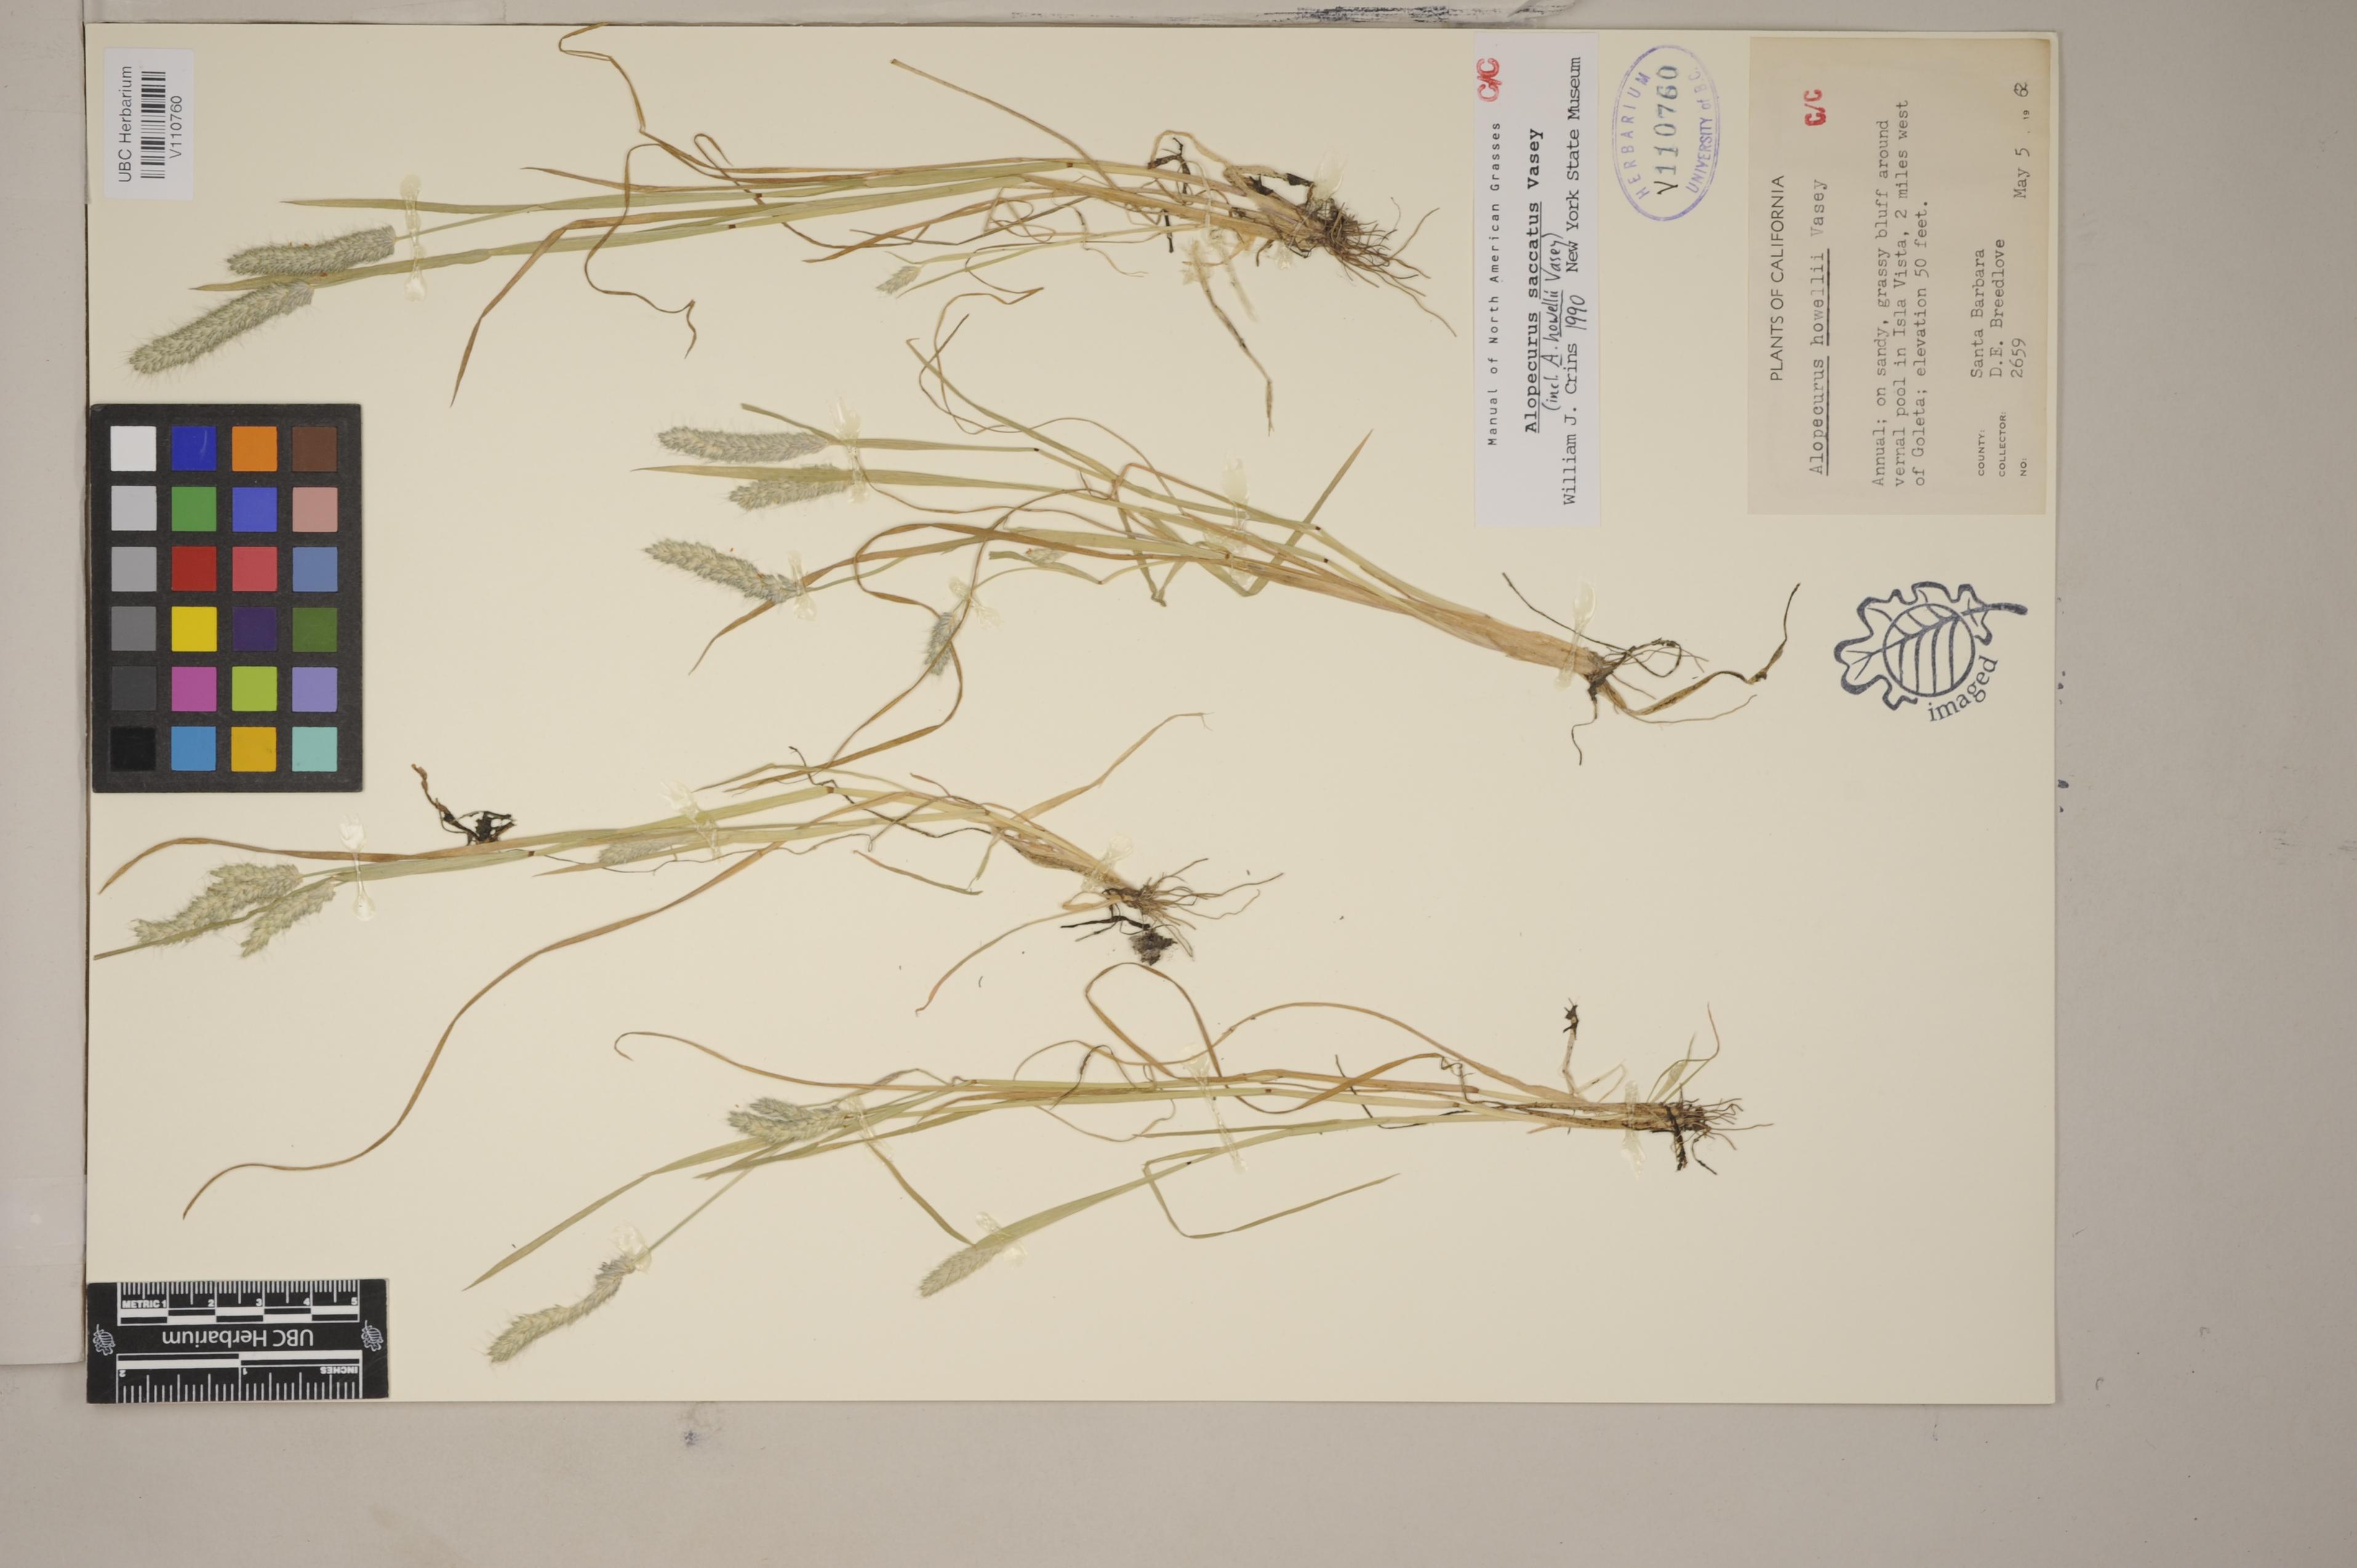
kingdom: Plantae
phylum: Tracheophyta
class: Liliopsida
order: Poales
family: Poaceae
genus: Alopecurus
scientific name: Alopecurus saccatus
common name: Pacific foxtail
